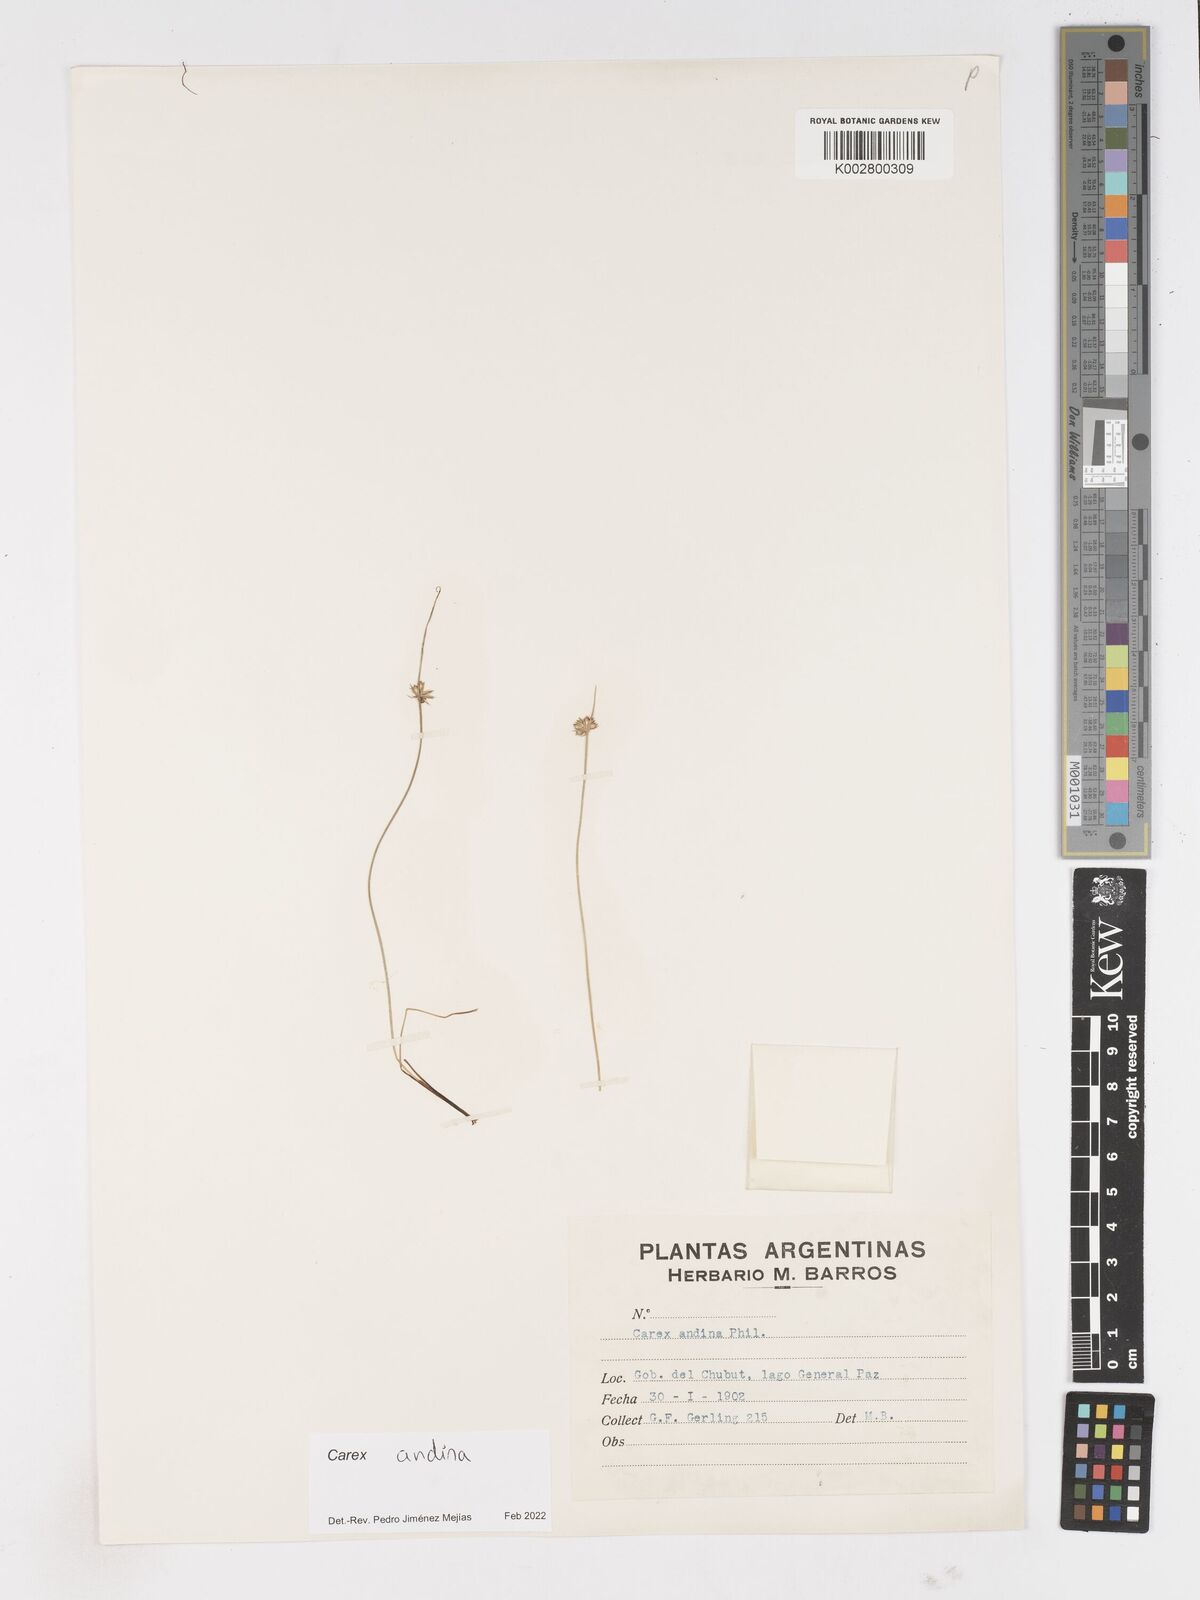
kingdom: Plantae
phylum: Tracheophyta
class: Liliopsida
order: Poales
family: Cyperaceae
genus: Carex
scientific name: Carex andina
